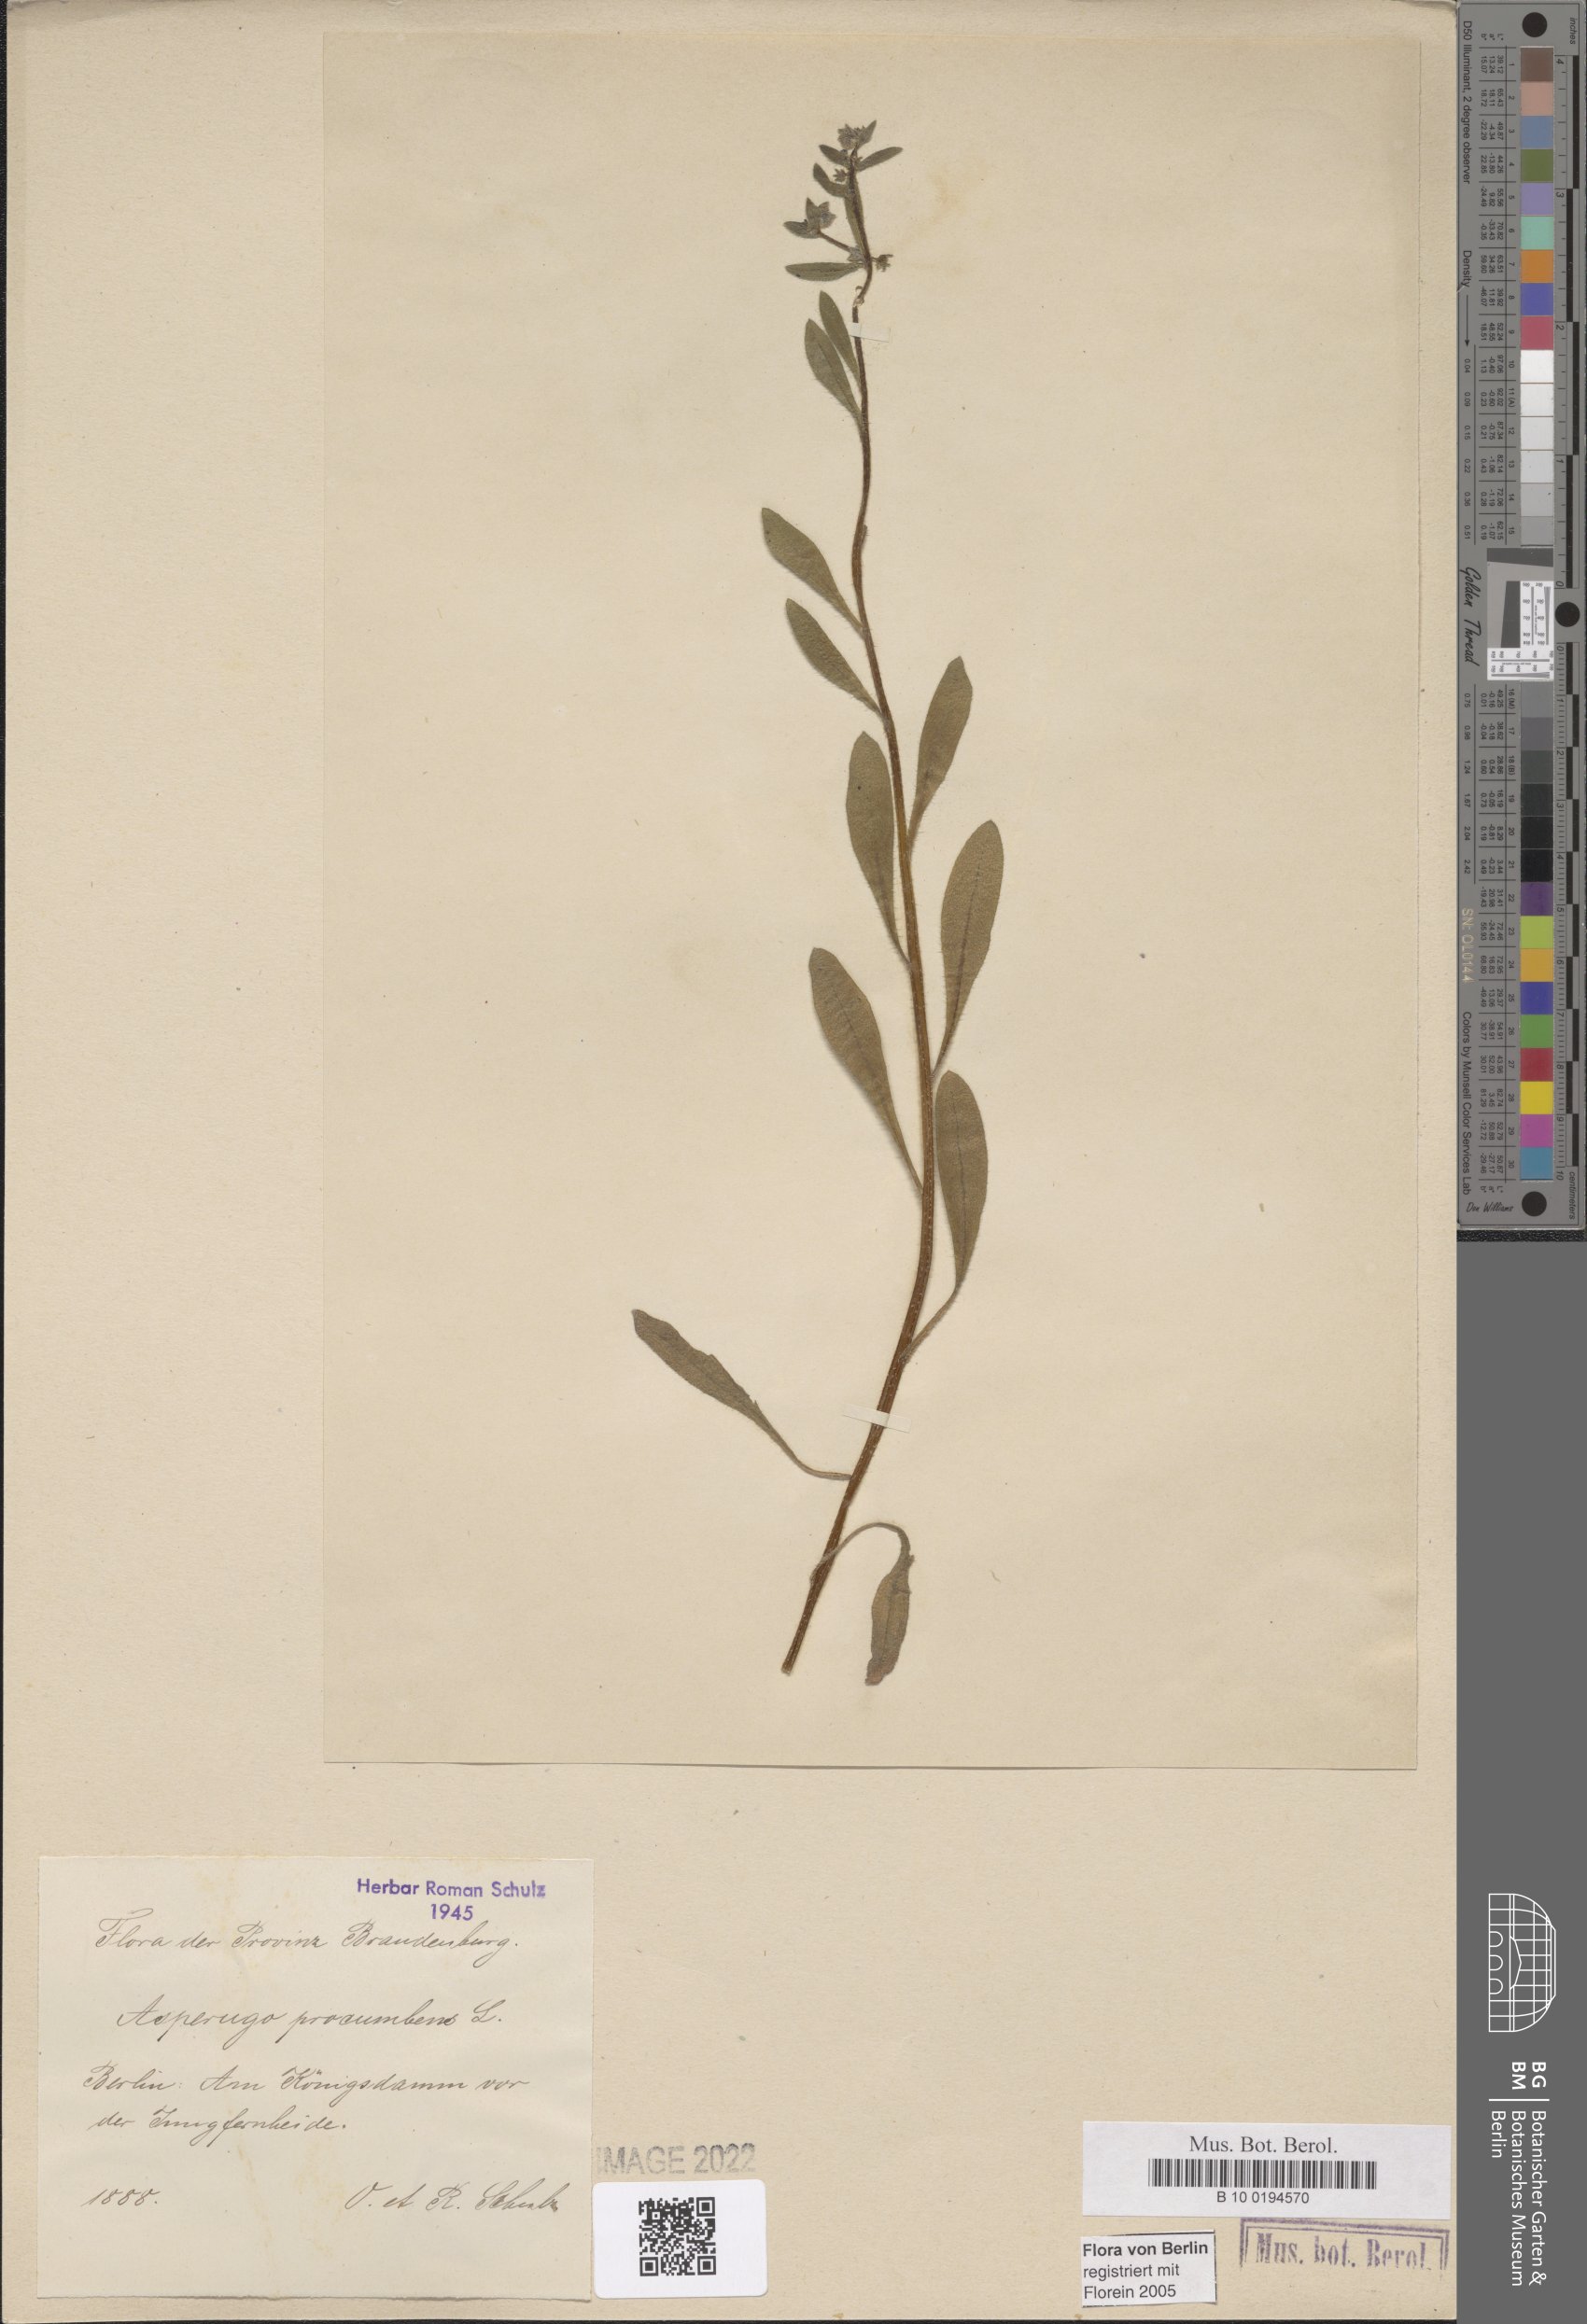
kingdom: Plantae
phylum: Tracheophyta
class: Magnoliopsida
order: Boraginales
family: Boraginaceae
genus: Asperugo
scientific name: Asperugo procumbens
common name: Madwort
